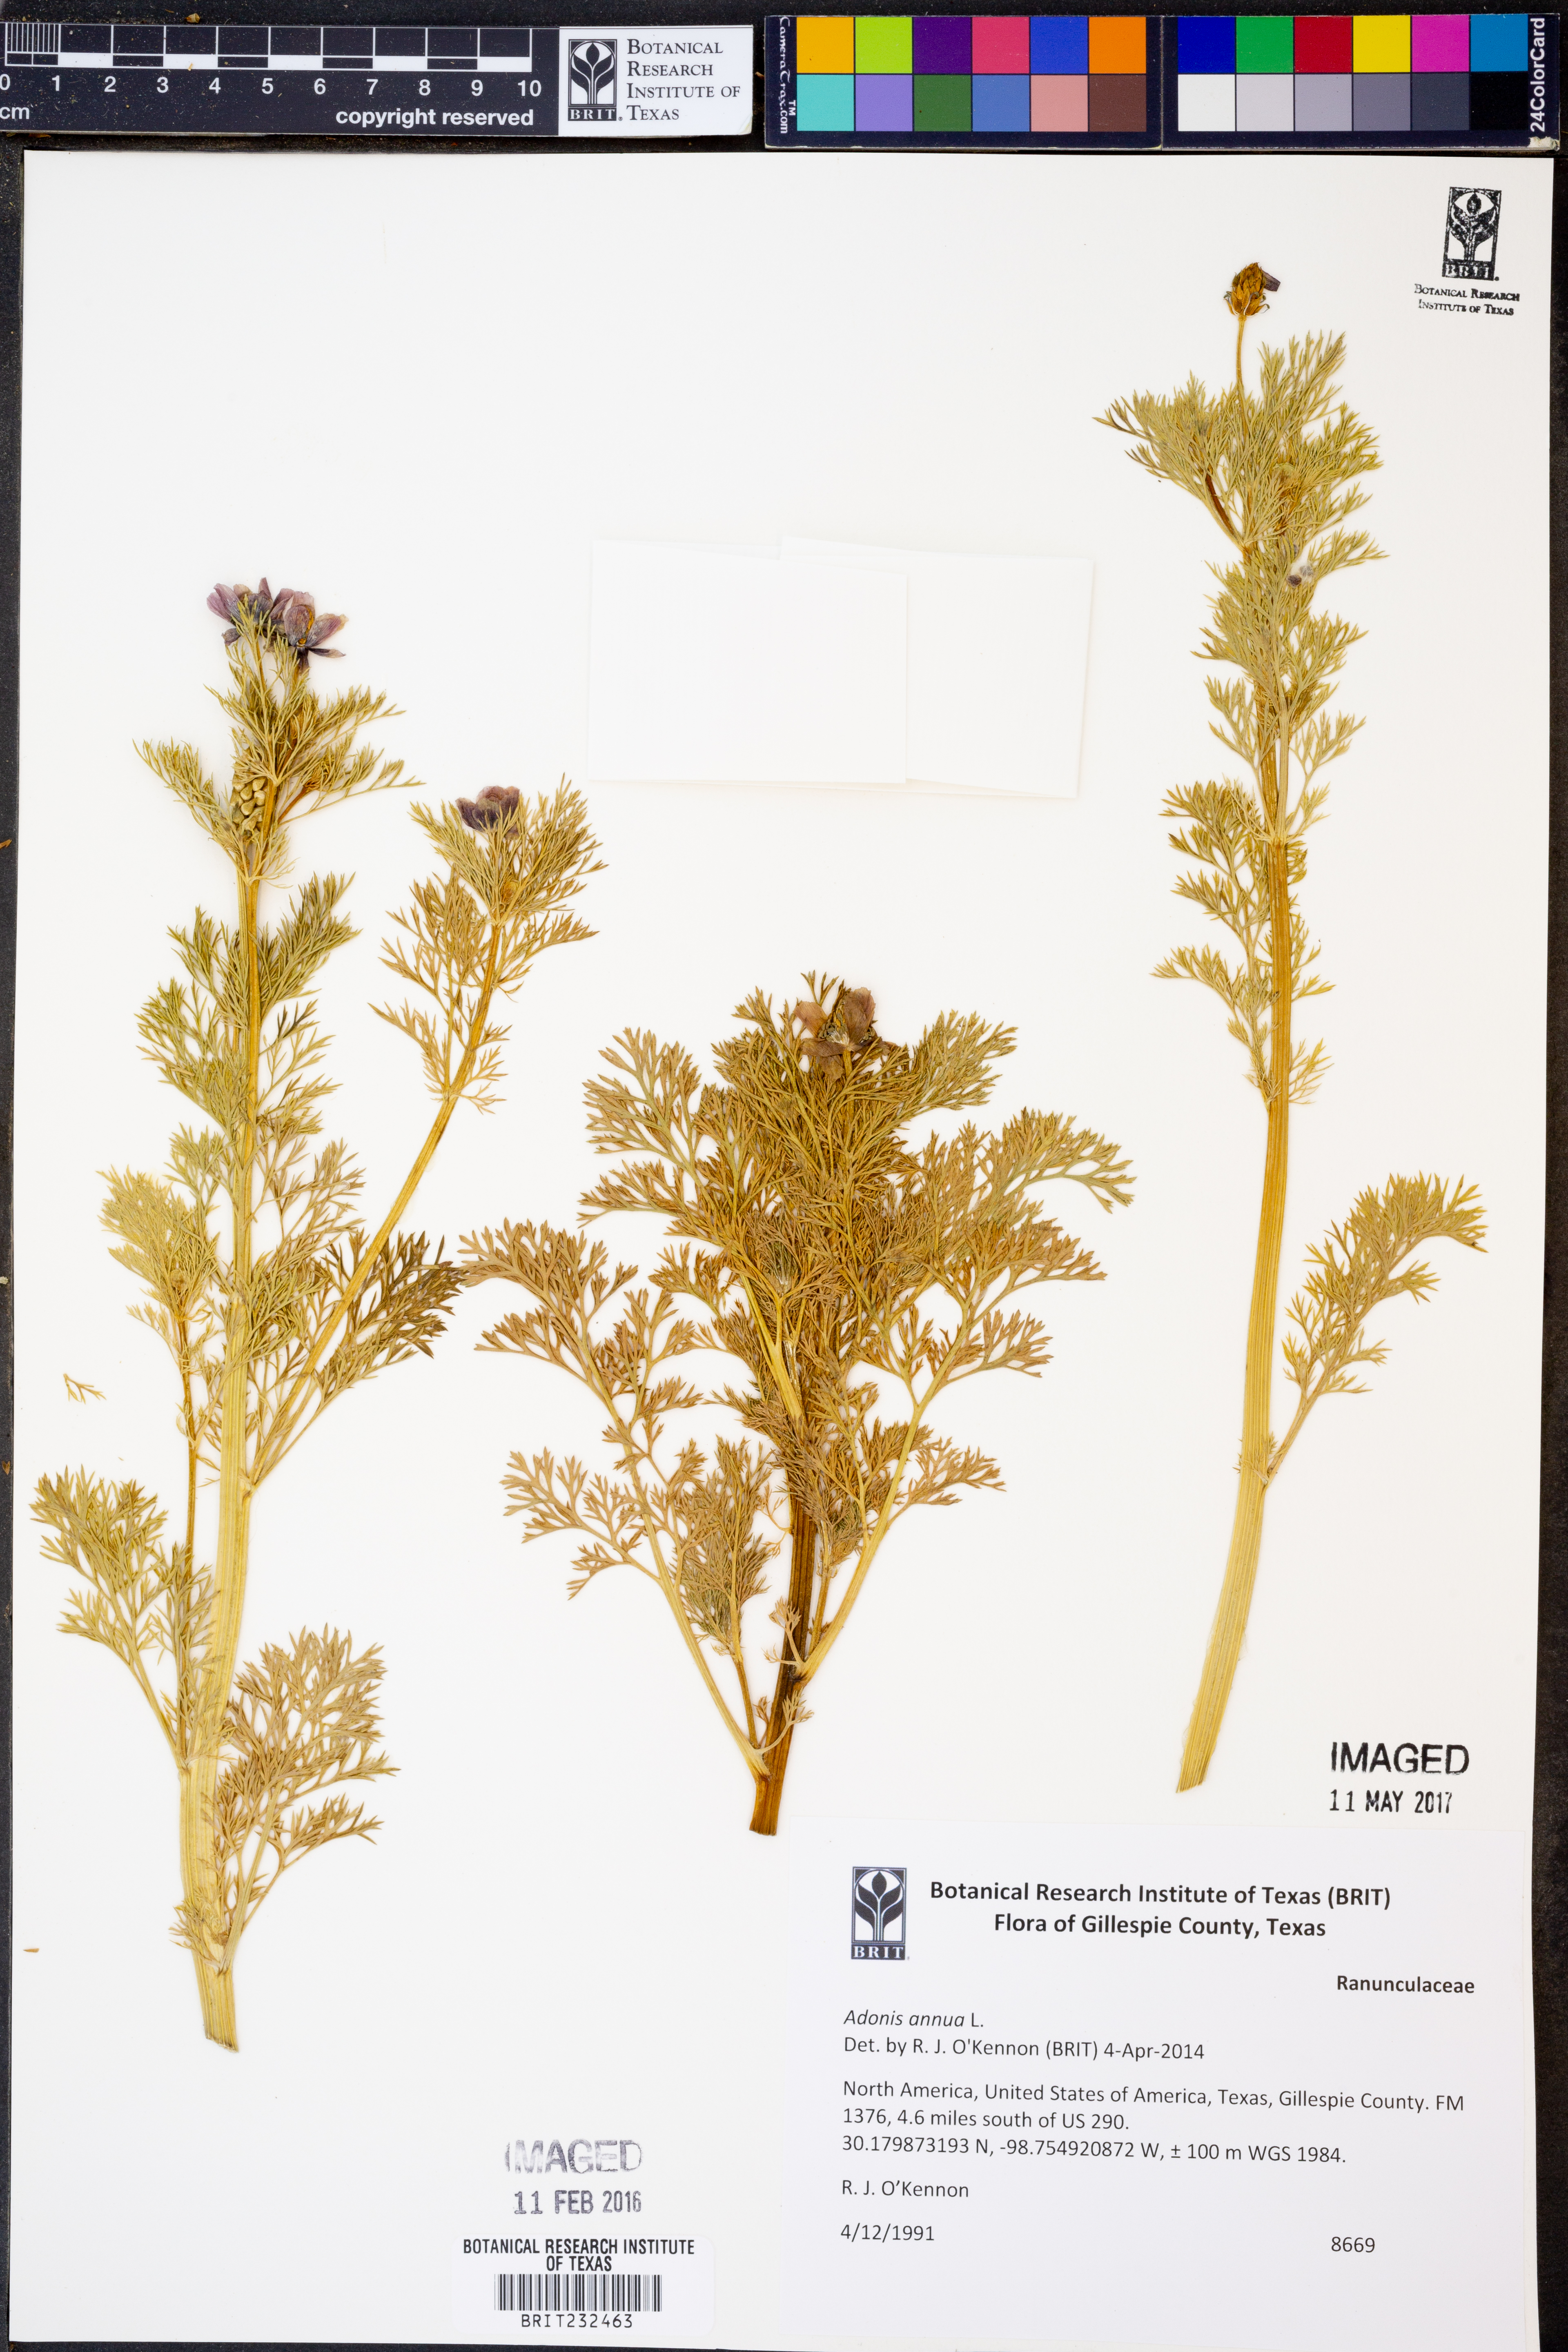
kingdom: Plantae
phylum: Tracheophyta
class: Magnoliopsida
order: Ranunculales
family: Ranunculaceae
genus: Adonis
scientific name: Adonis annua
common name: Pheasant's-eye
